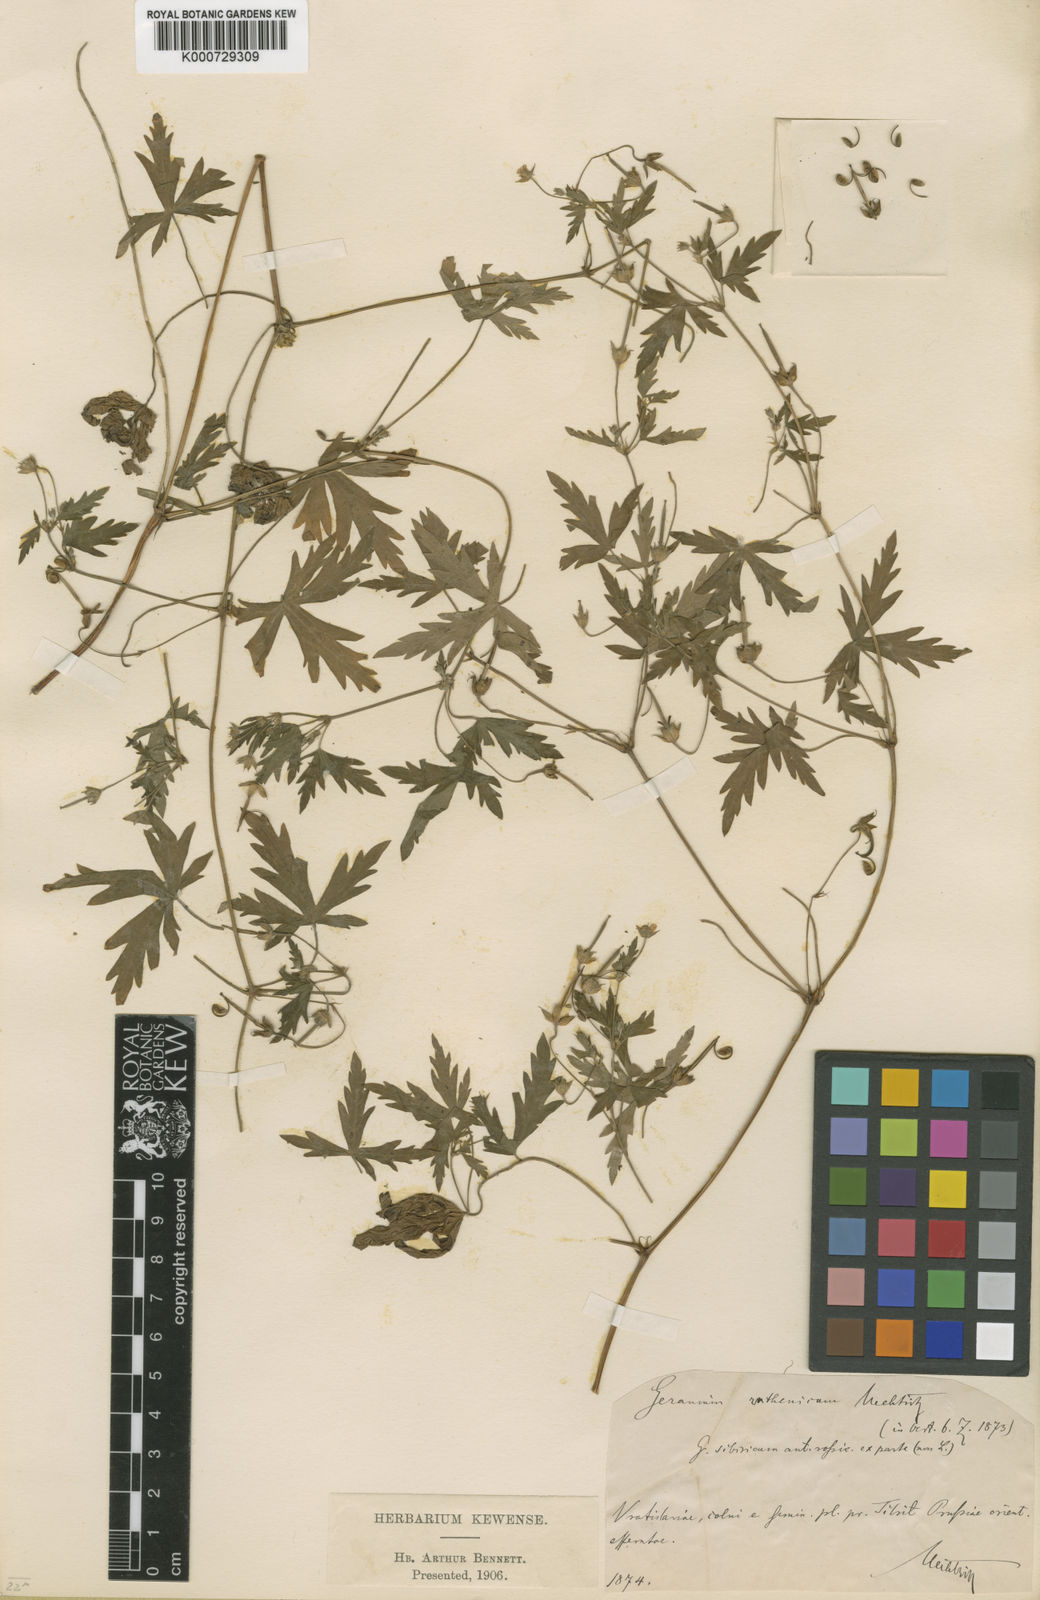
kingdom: Plantae
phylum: Tracheophyta
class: Magnoliopsida
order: Geraniales
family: Geraniaceae
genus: Geranium
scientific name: Geranium sibiricum
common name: Siberian crane's-bill
